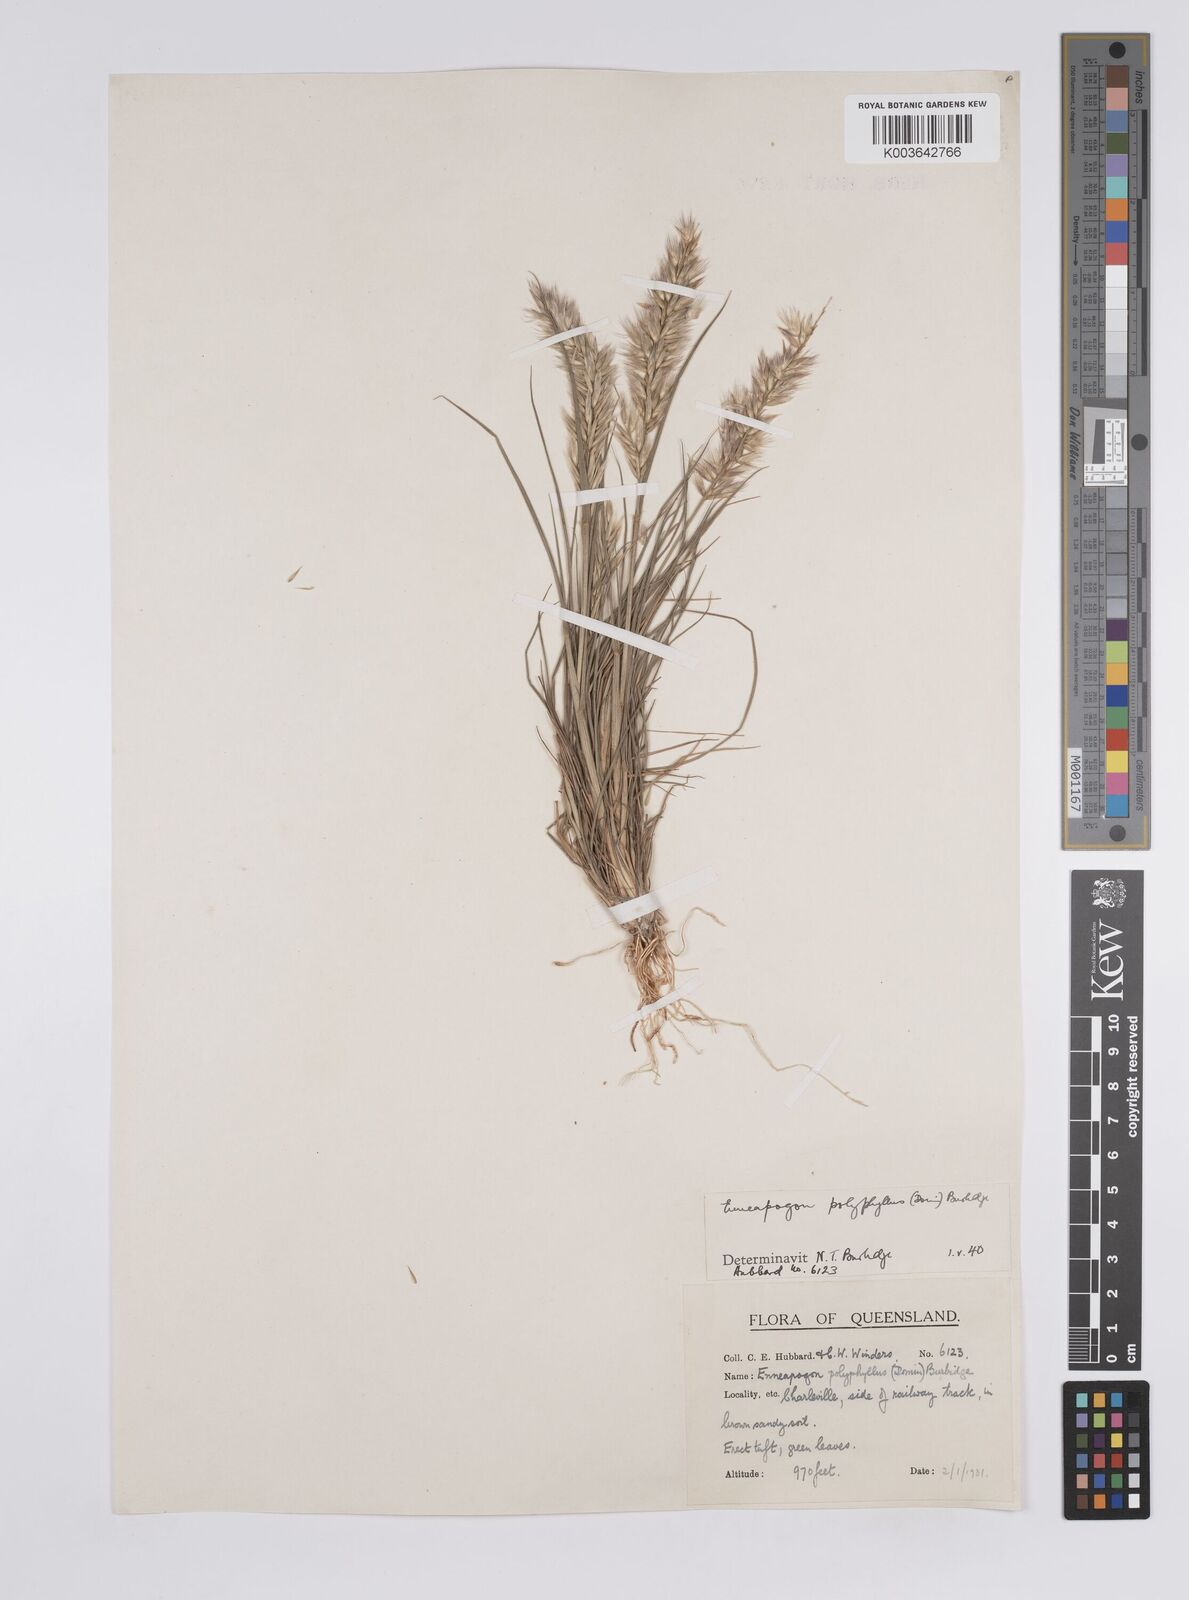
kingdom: Plantae
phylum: Tracheophyta
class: Liliopsida
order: Poales
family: Poaceae
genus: Enneapogon
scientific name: Enneapogon polyphyllus
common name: Leafy nineawn
